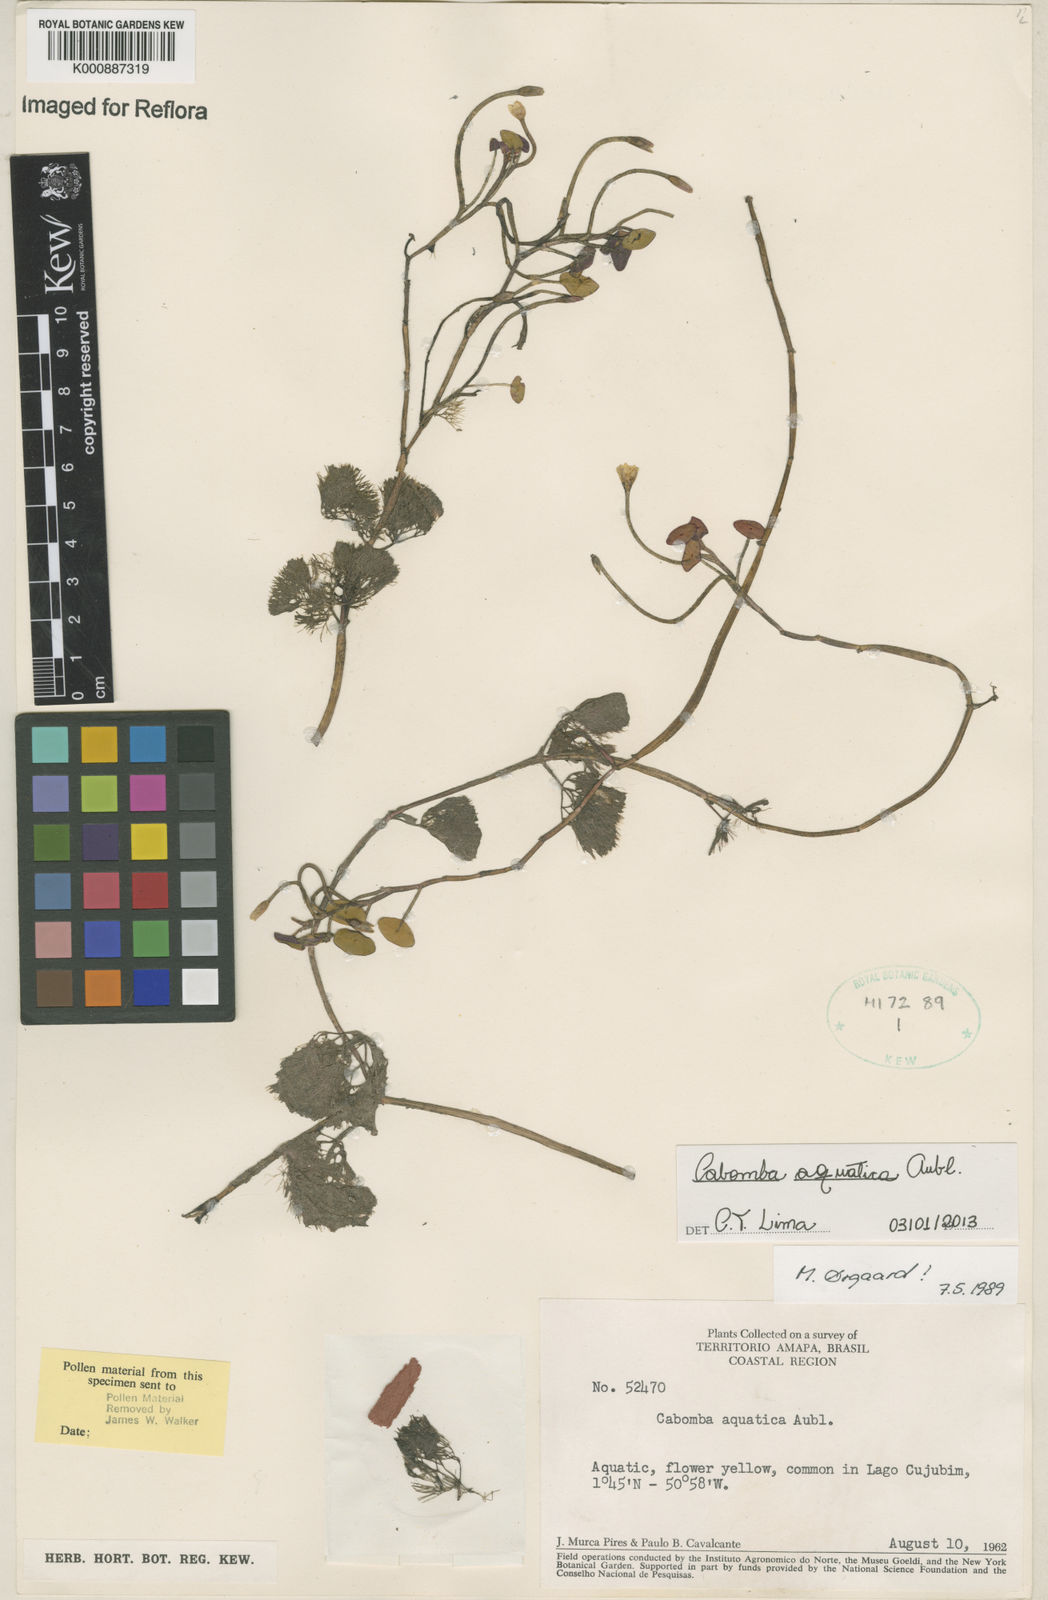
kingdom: Plantae
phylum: Tracheophyta
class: Magnoliopsida
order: Nymphaeales
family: Cabombaceae
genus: Cabomba
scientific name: Cabomba aquatica
